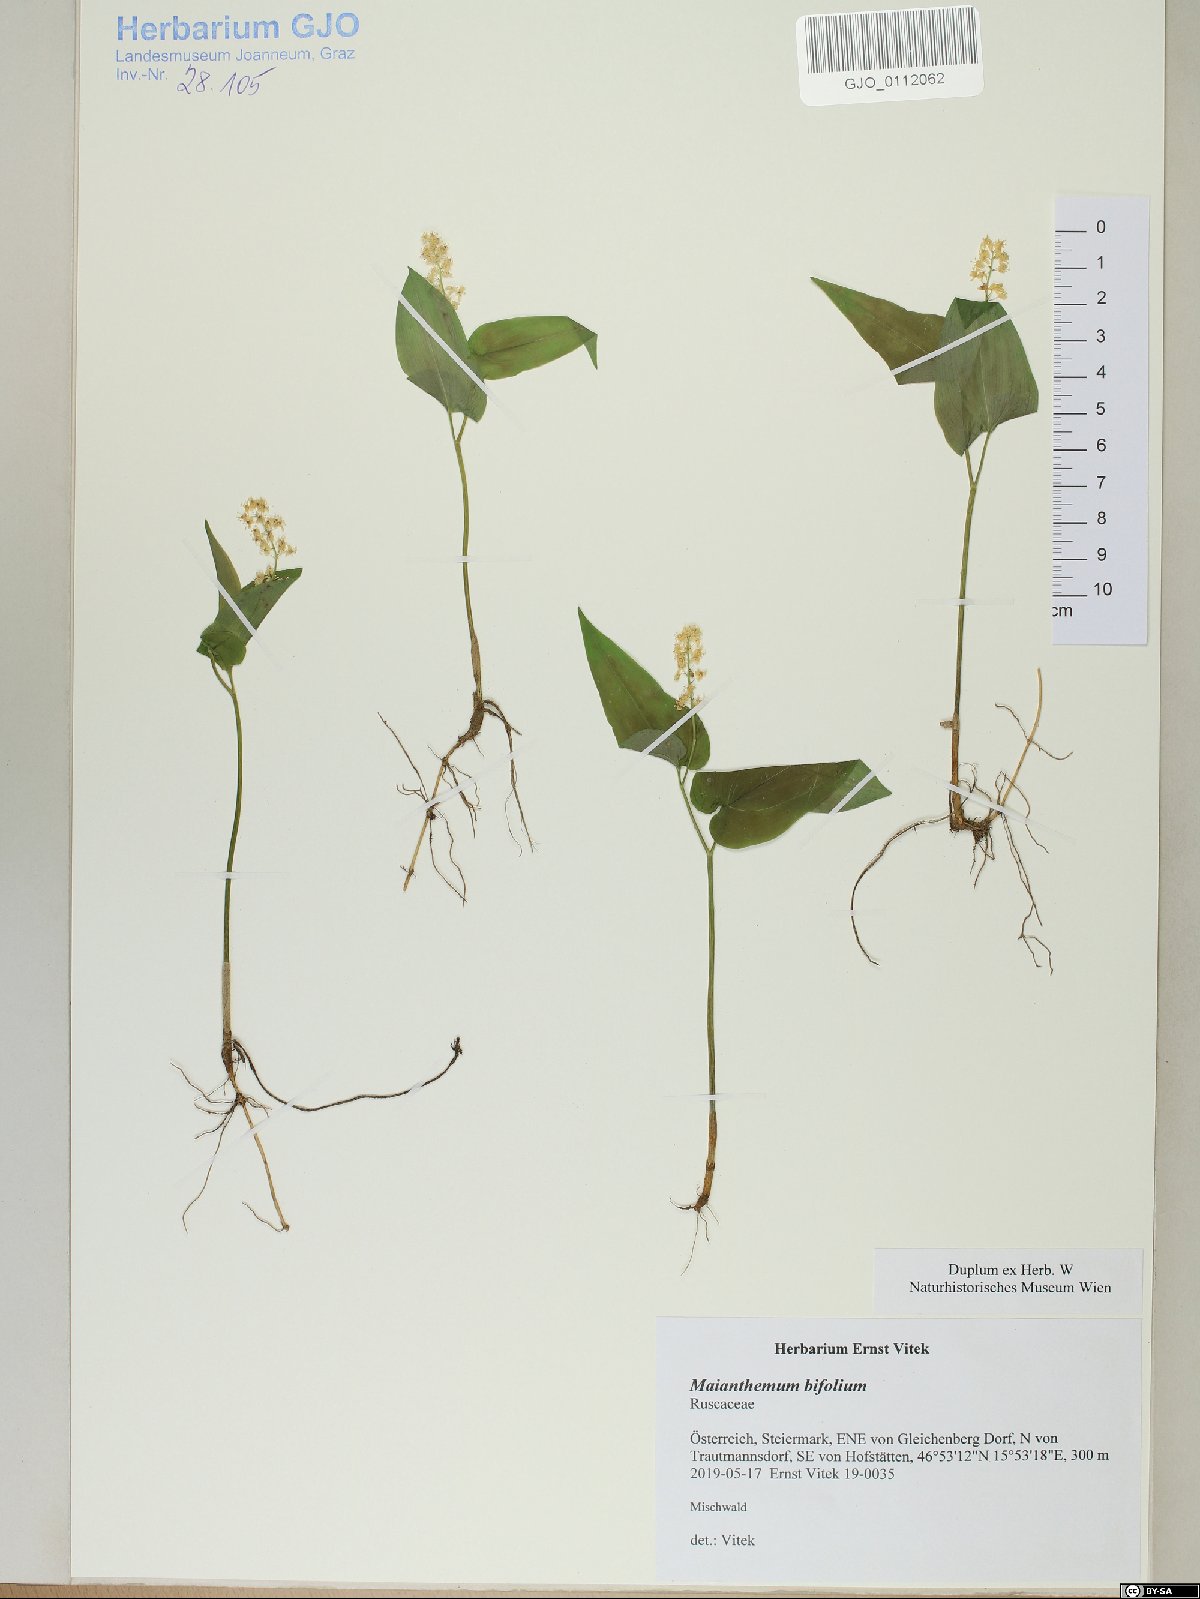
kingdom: Plantae
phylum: Tracheophyta
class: Liliopsida
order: Asparagales
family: Asparagaceae
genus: Maianthemum
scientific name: Maianthemum bifolium
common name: May lily
